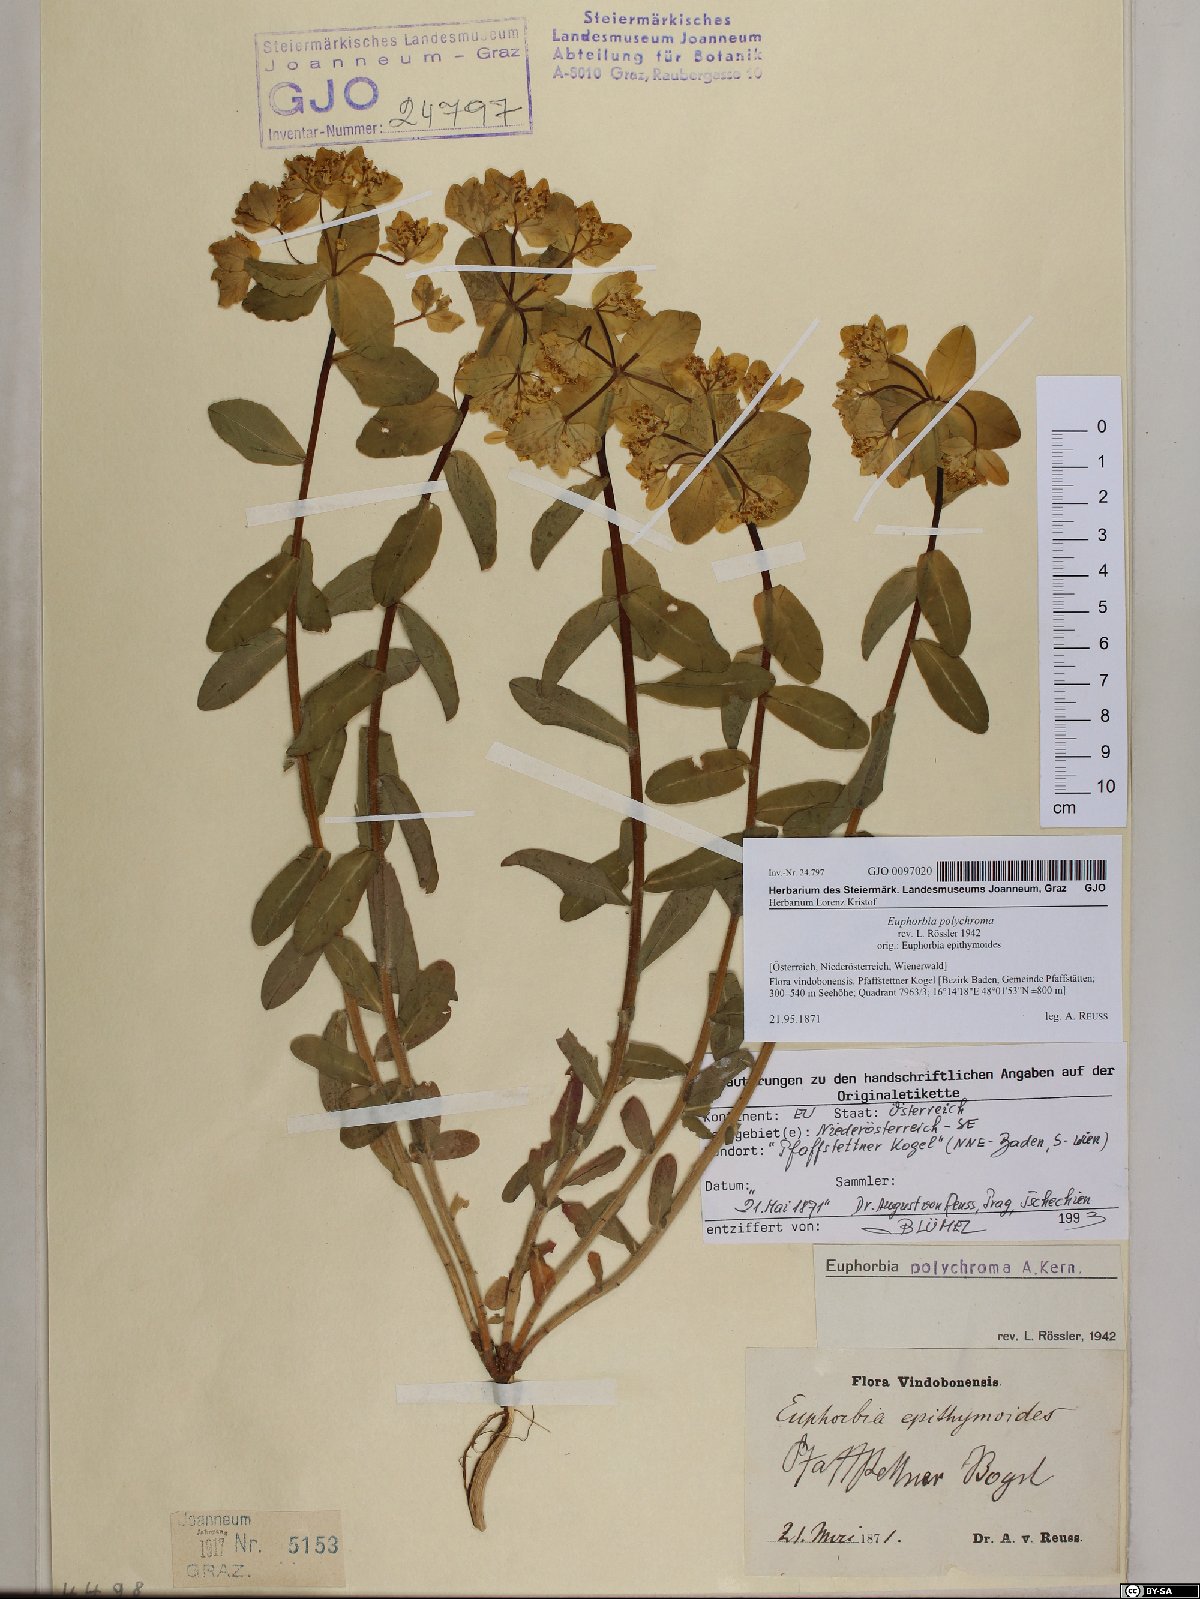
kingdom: Plantae
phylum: Tracheophyta
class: Magnoliopsida
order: Malpighiales
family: Euphorbiaceae
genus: Euphorbia
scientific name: Euphorbia epithymoides
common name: Cushion spurge
